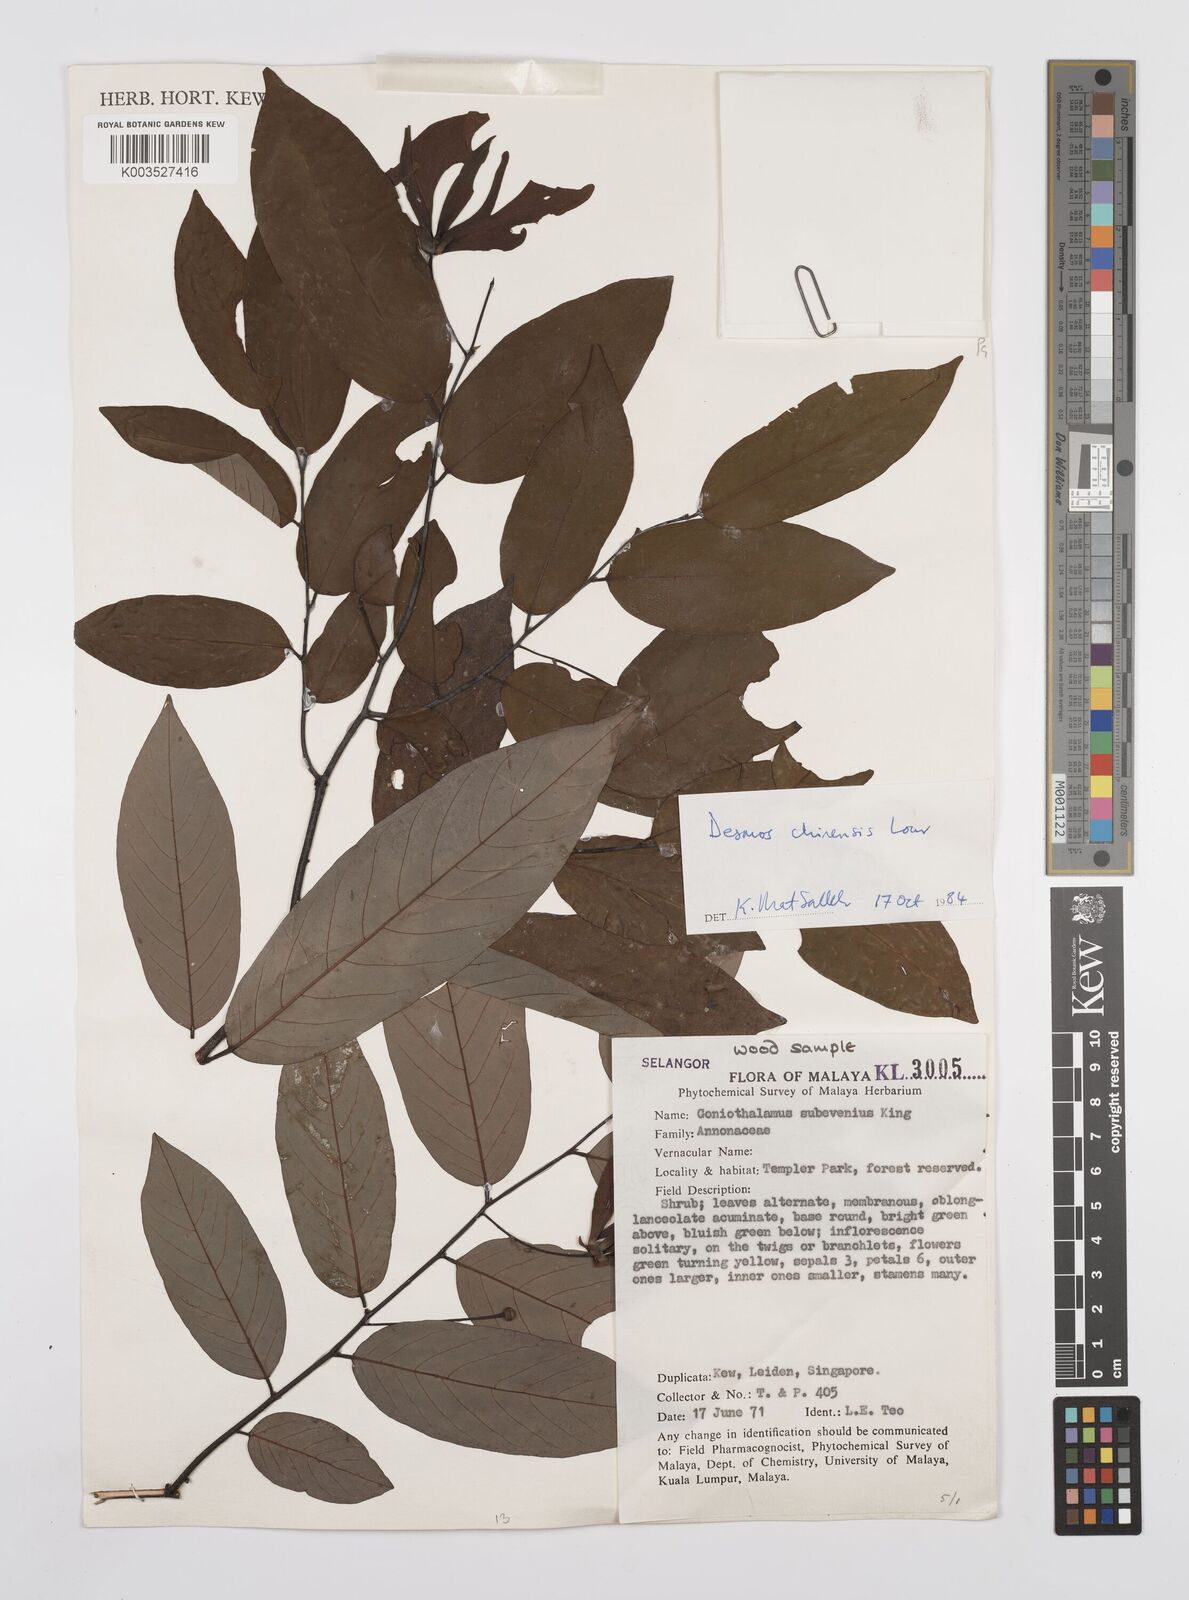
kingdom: Plantae
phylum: Tracheophyta
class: Magnoliopsida
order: Magnoliales
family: Annonaceae
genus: Desmos
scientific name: Desmos chinensis
